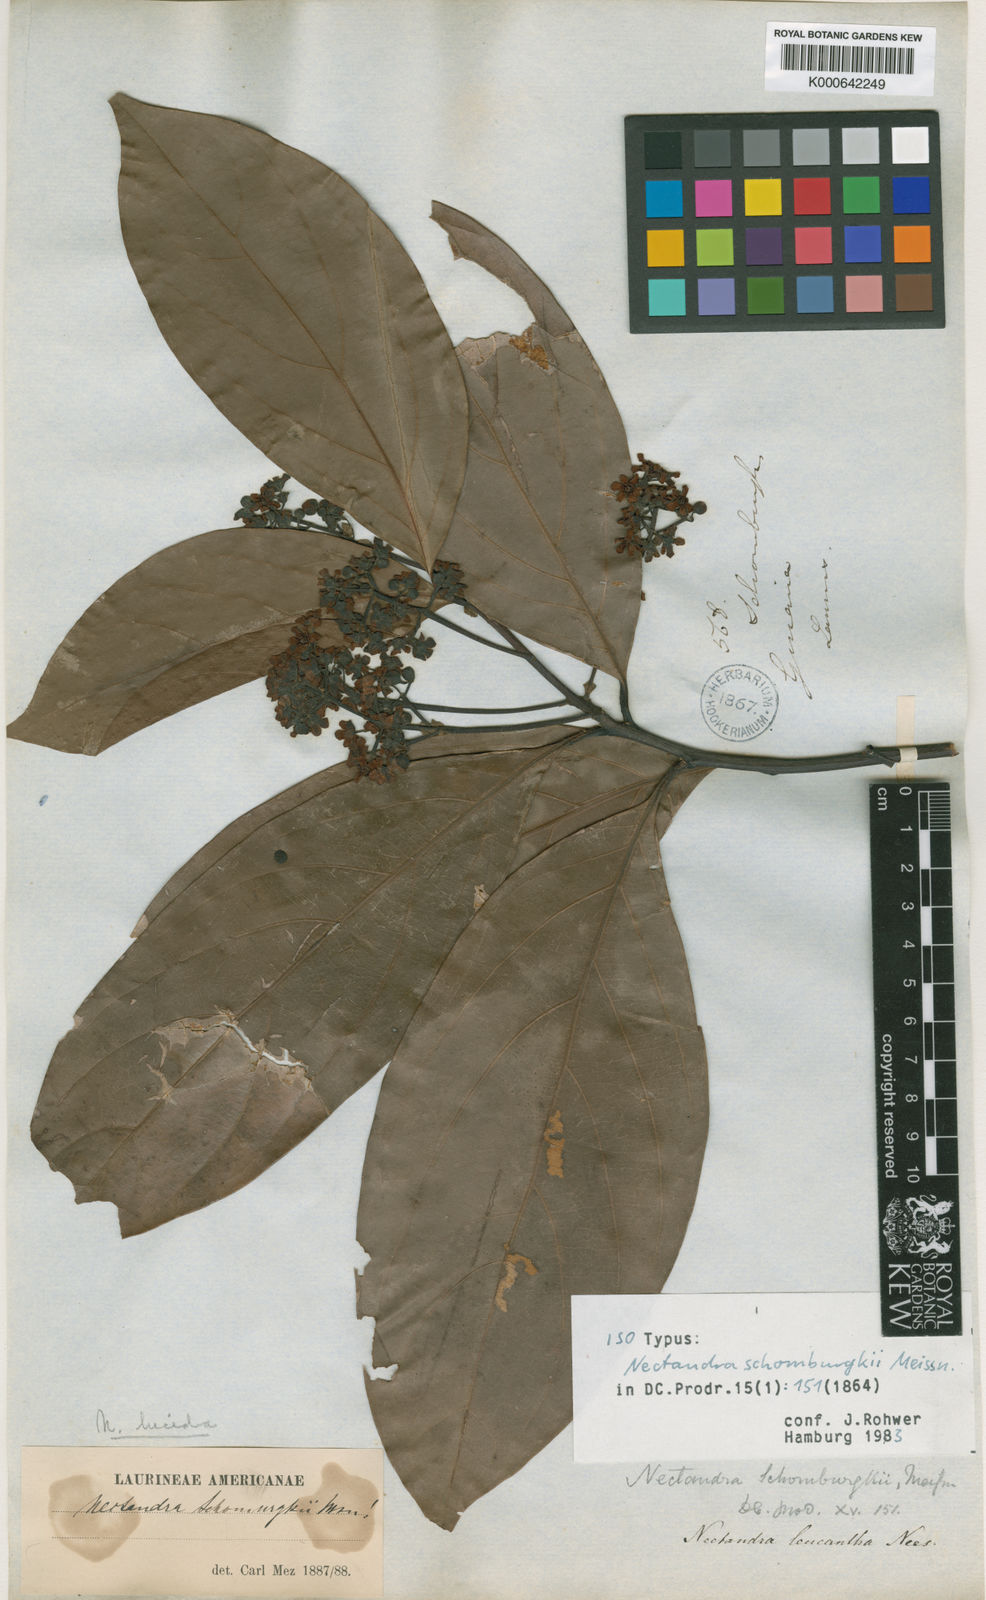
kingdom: Plantae
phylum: Tracheophyta
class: Magnoliopsida
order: Laurales
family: Lauraceae
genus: Endlicheria
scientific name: Endlicheria paniculata
